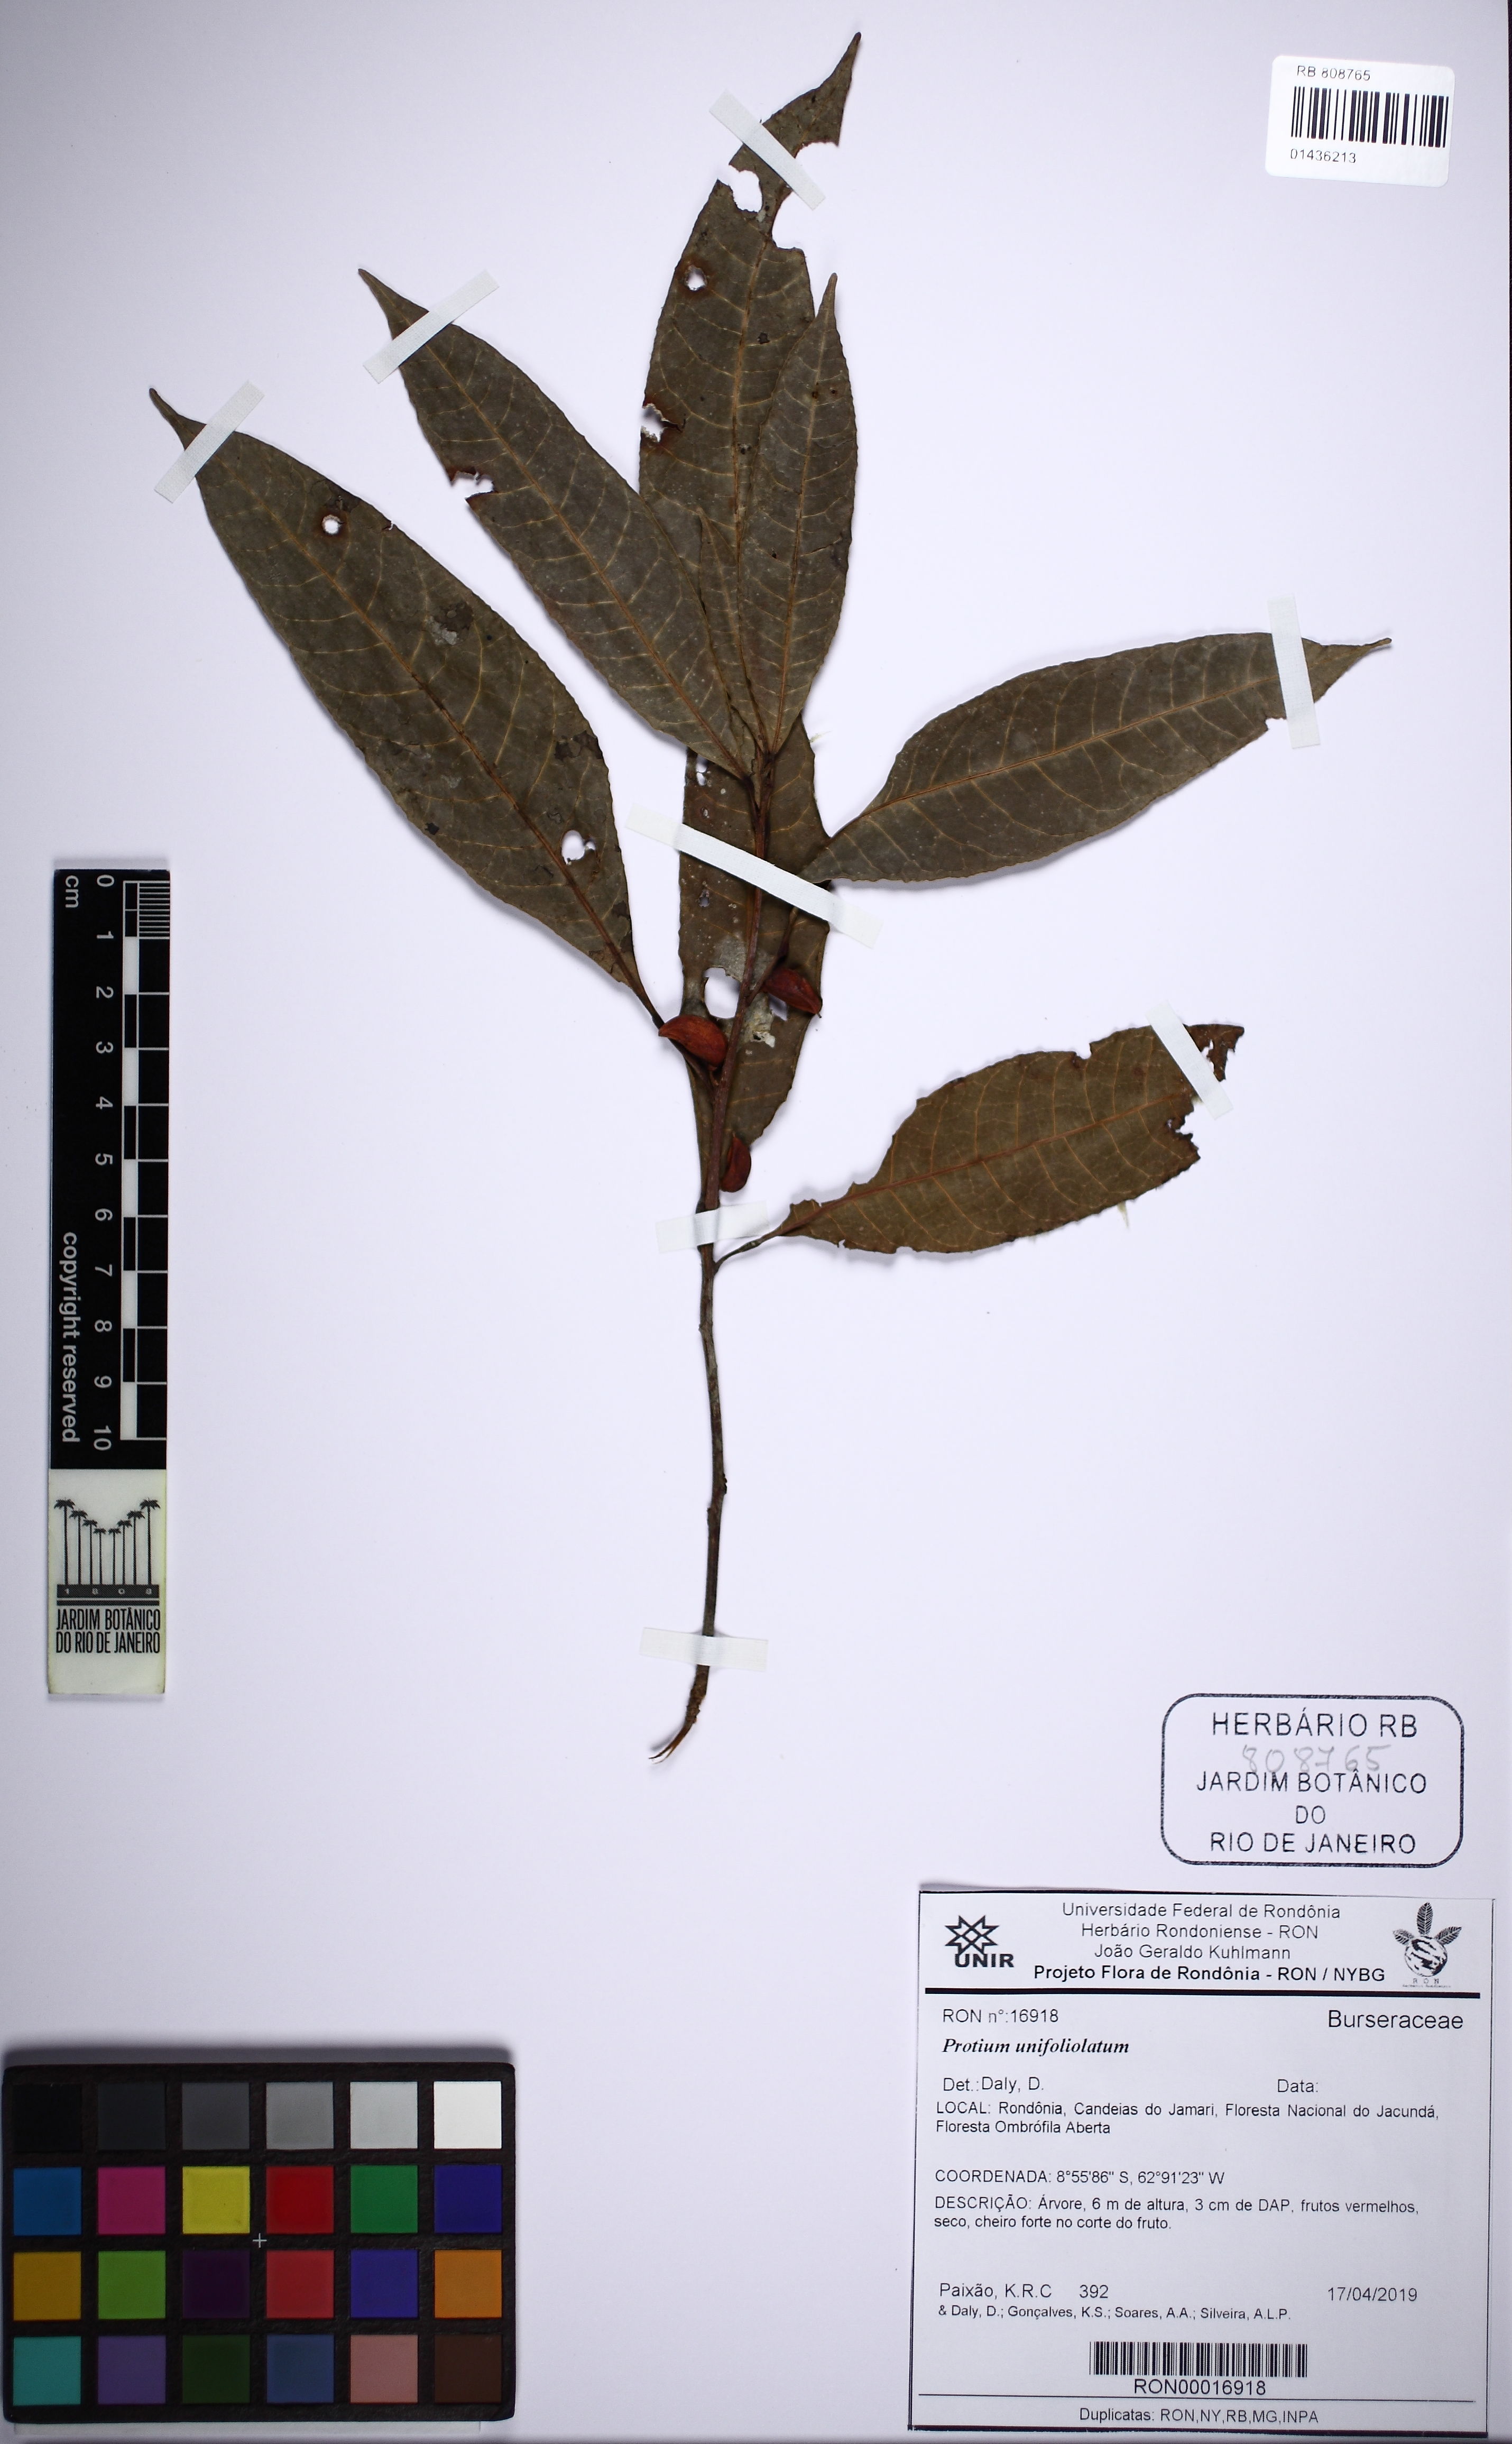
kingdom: Plantae
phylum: Tracheophyta
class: Magnoliopsida
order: Sapindales
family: Burseraceae
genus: Protium
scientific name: Protium trifoliolatum
